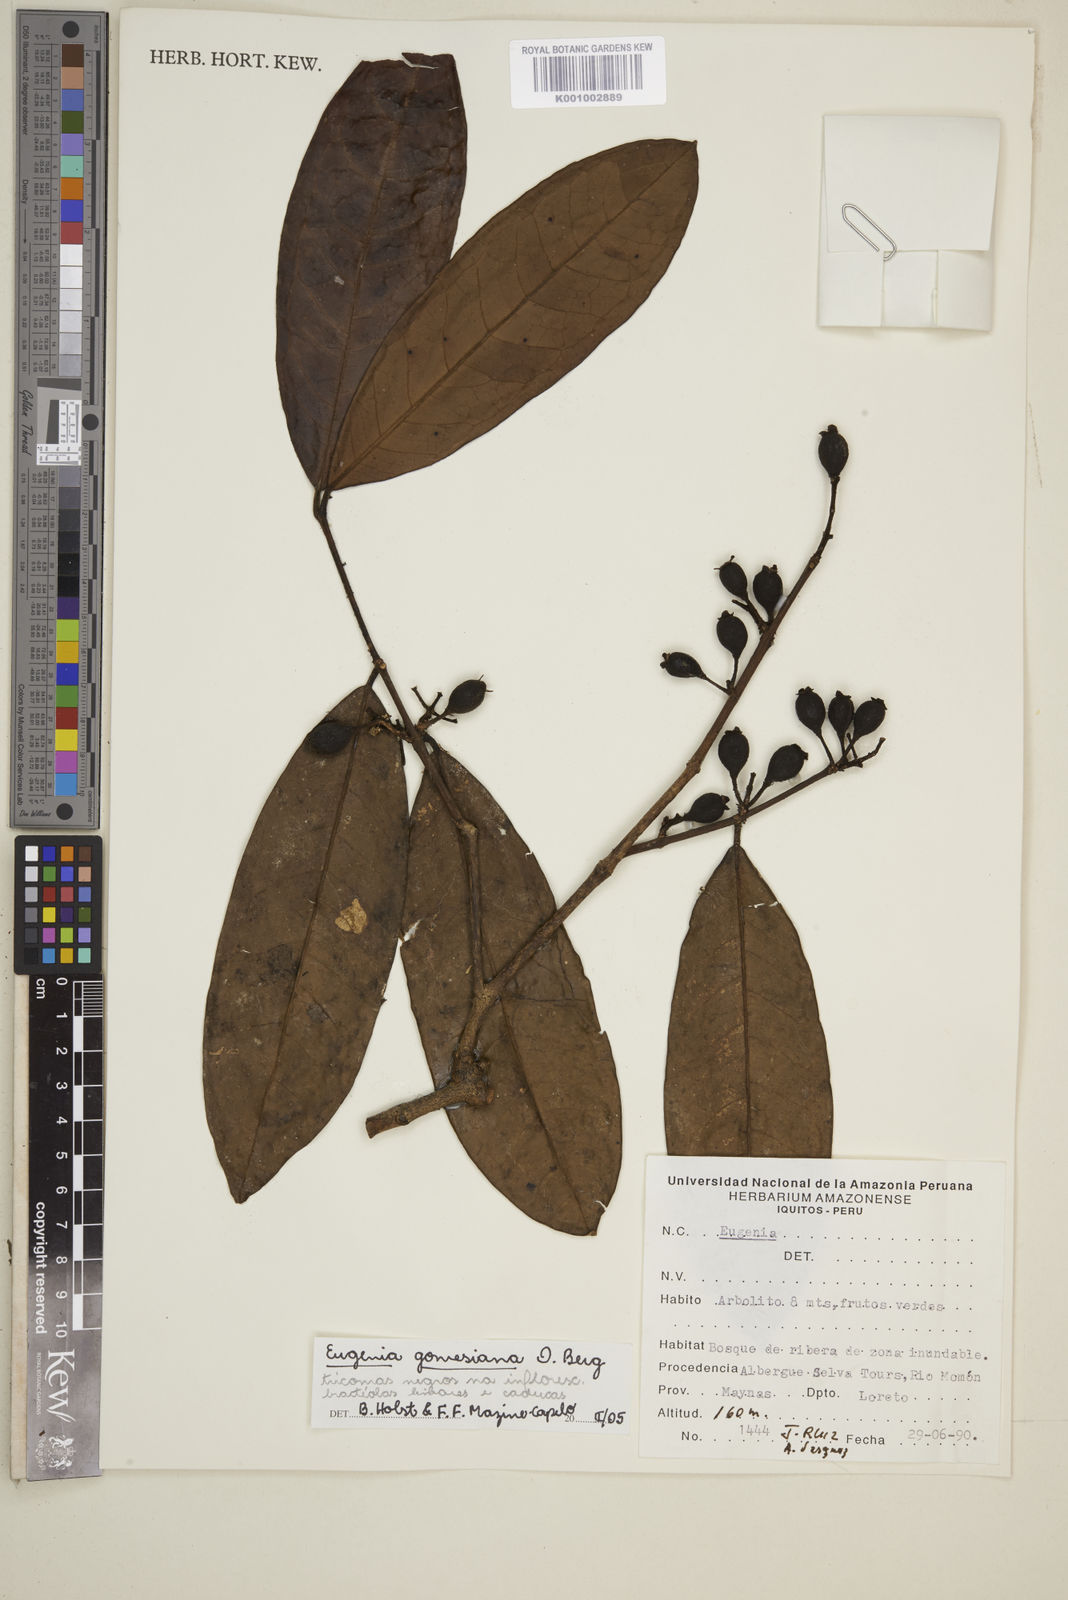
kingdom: Plantae
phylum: Tracheophyta
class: Magnoliopsida
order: Myrtales
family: Myrtaceae
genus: Eugenia
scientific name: Eugenia gomesiana
